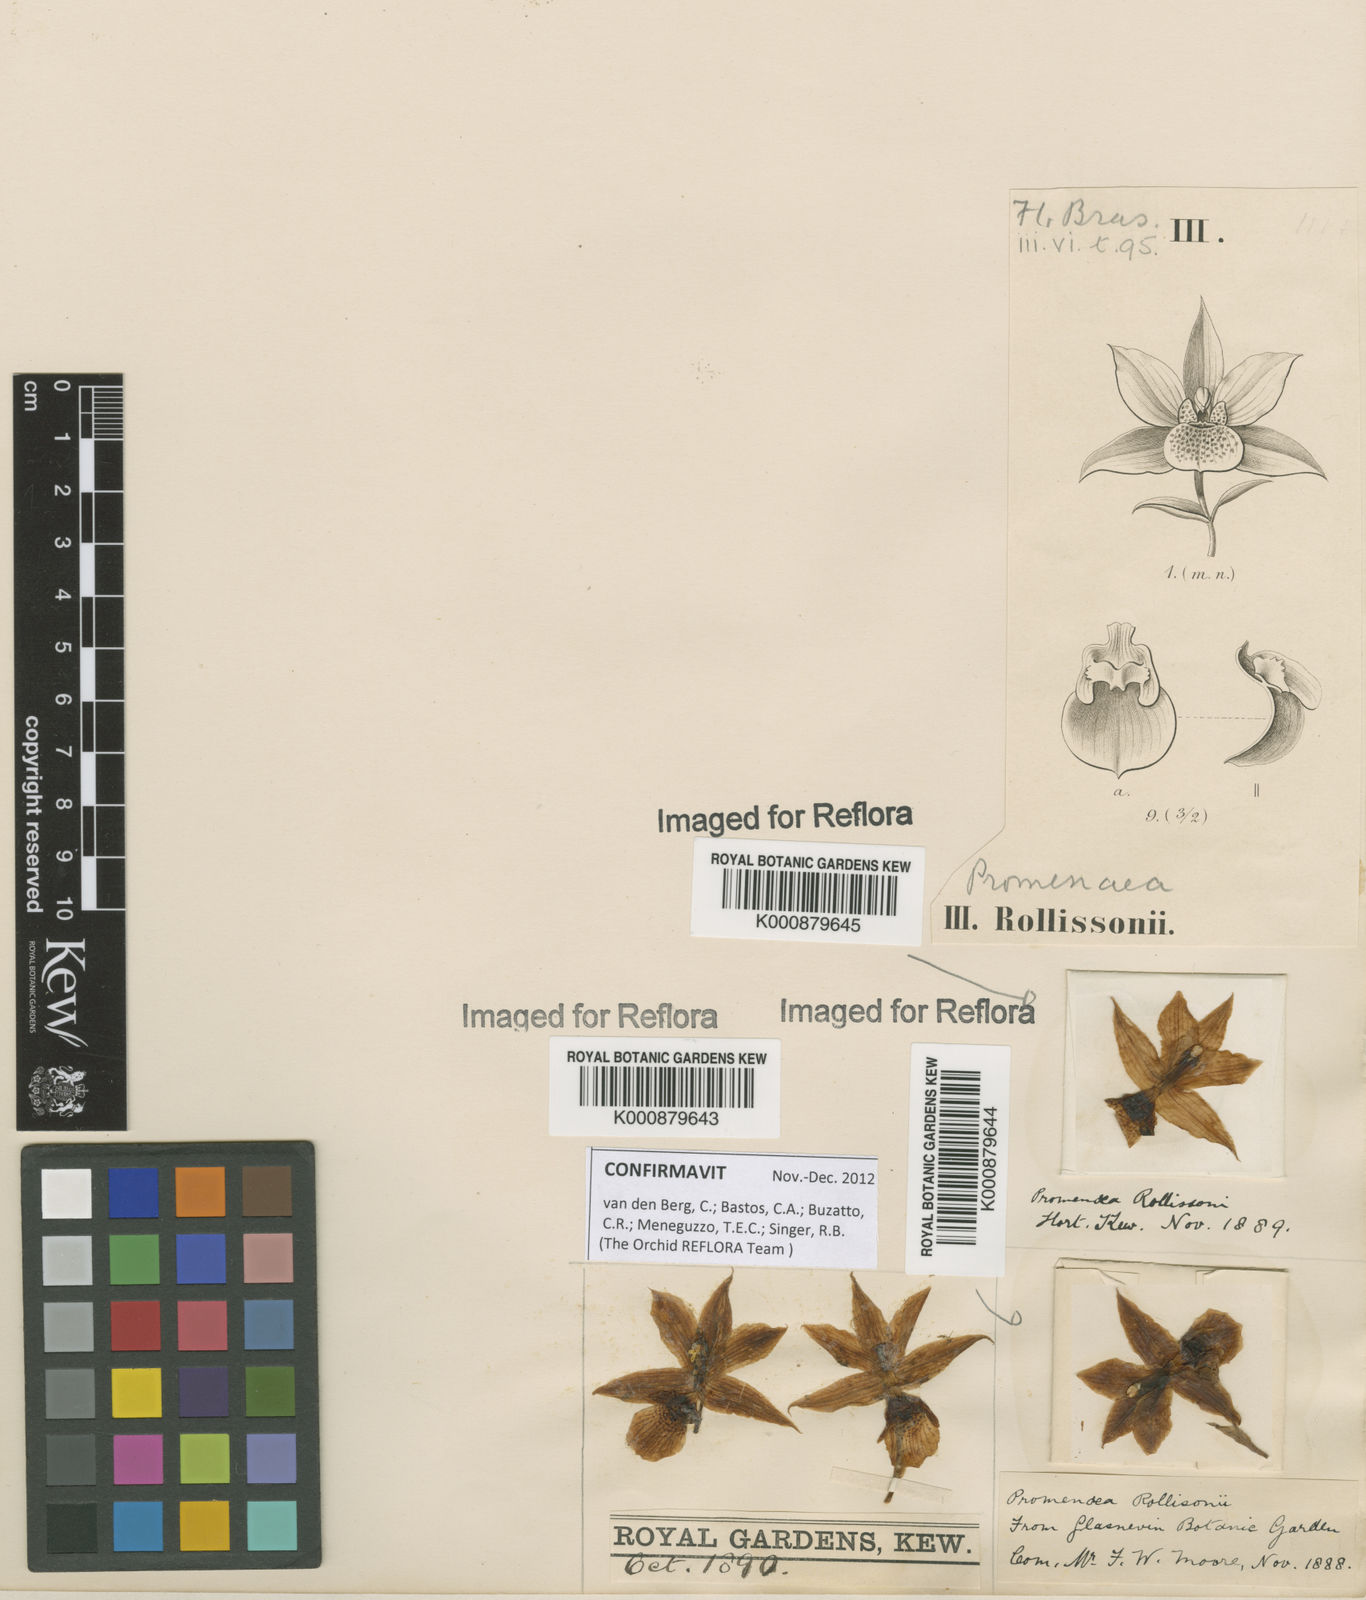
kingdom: Plantae
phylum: Tracheophyta
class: Liliopsida
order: Asparagales
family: Orchidaceae
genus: Promenaea
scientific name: Promenaea microptera
